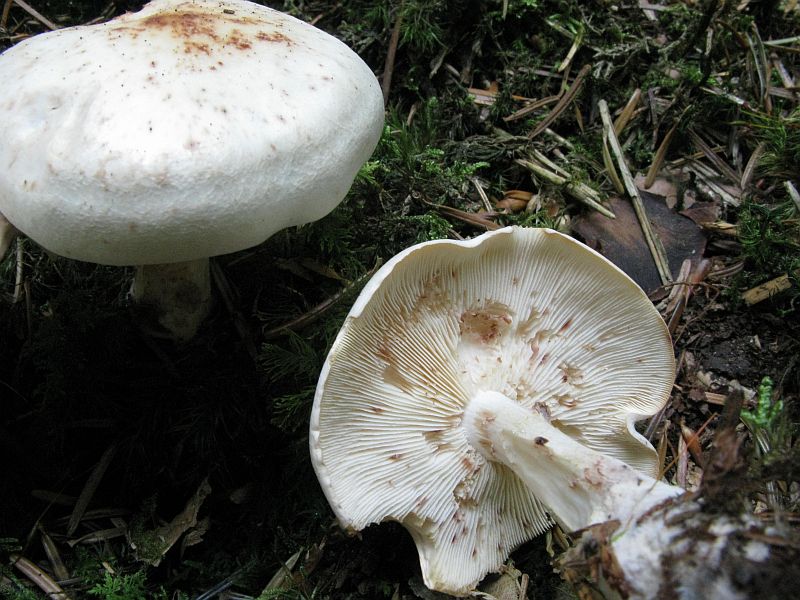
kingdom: Fungi
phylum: Basidiomycota
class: Agaricomycetes
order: Agaricales
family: Omphalotaceae
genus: Rhodocollybia
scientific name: Rhodocollybia maculata
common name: plettet fladhat
